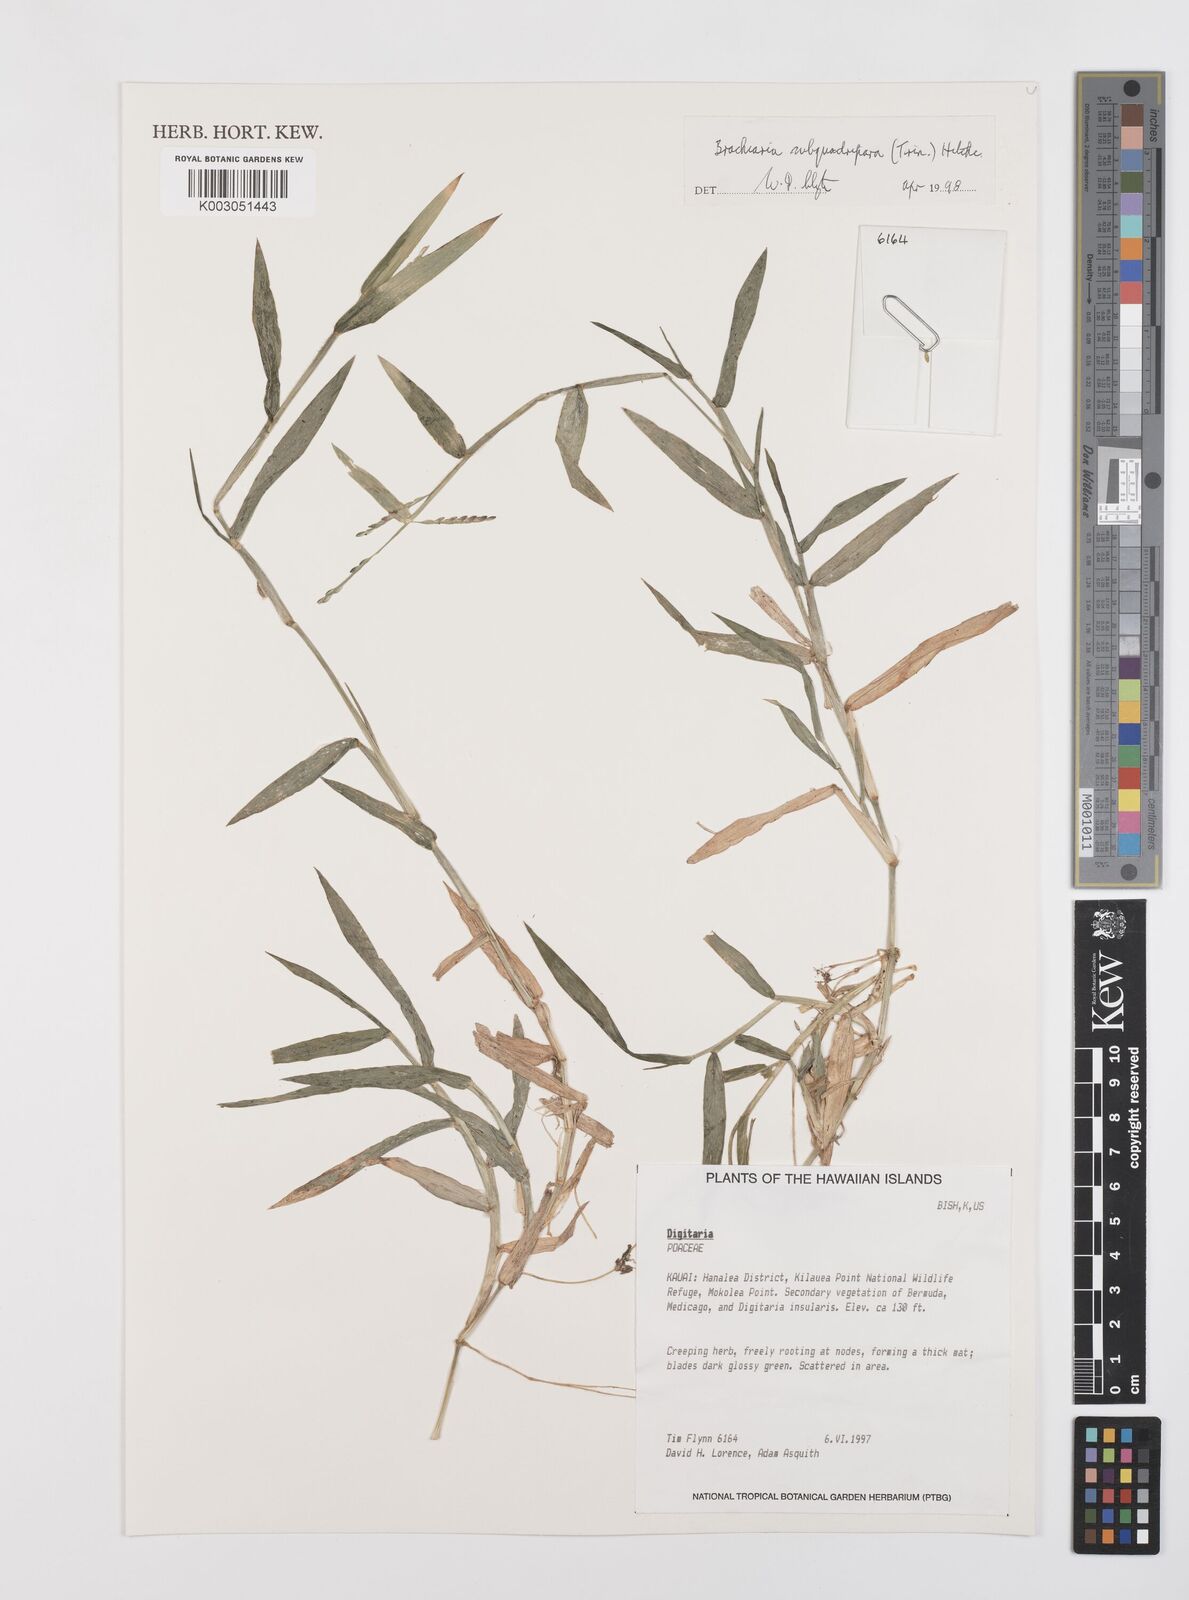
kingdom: Plantae
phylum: Tracheophyta
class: Liliopsida
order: Poales
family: Poaceae
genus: Urochloa
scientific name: Urochloa subquadripara
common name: Armgrass millet
